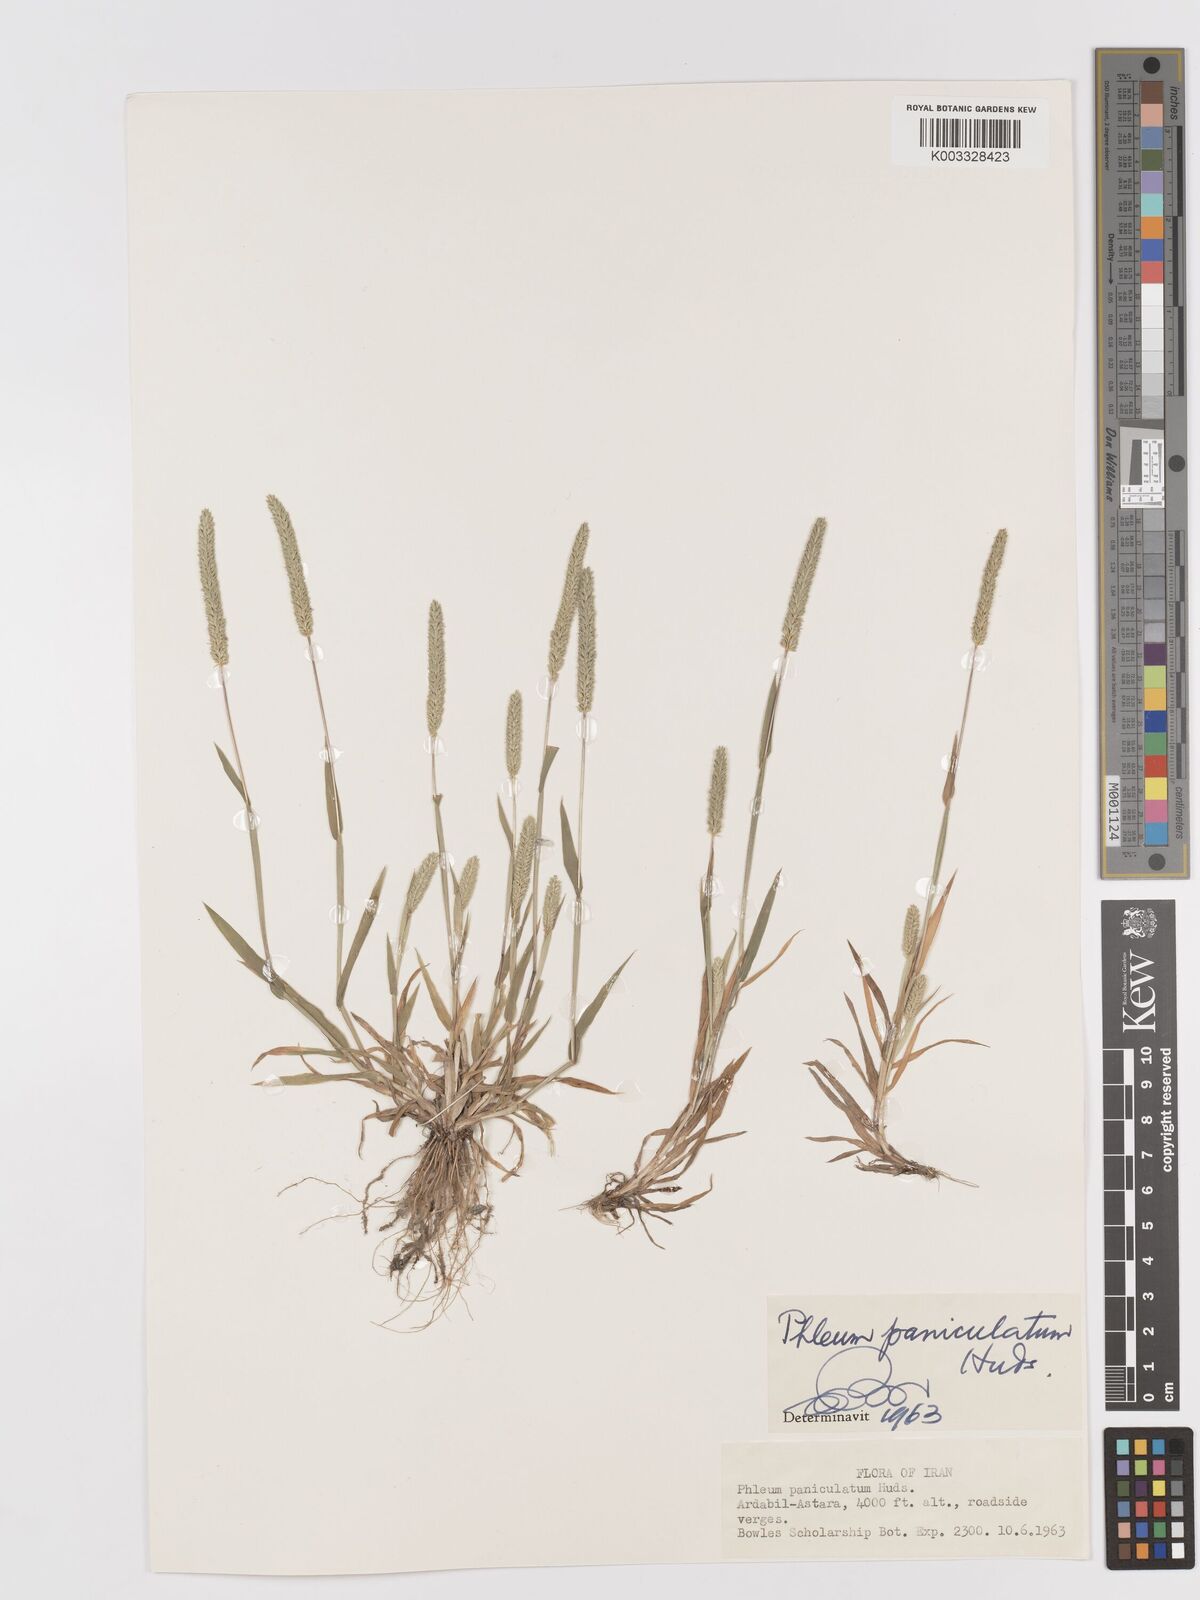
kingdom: Plantae
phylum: Tracheophyta
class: Liliopsida
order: Poales
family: Poaceae
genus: Phleum
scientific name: Phleum paniculatum
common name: British timothy
